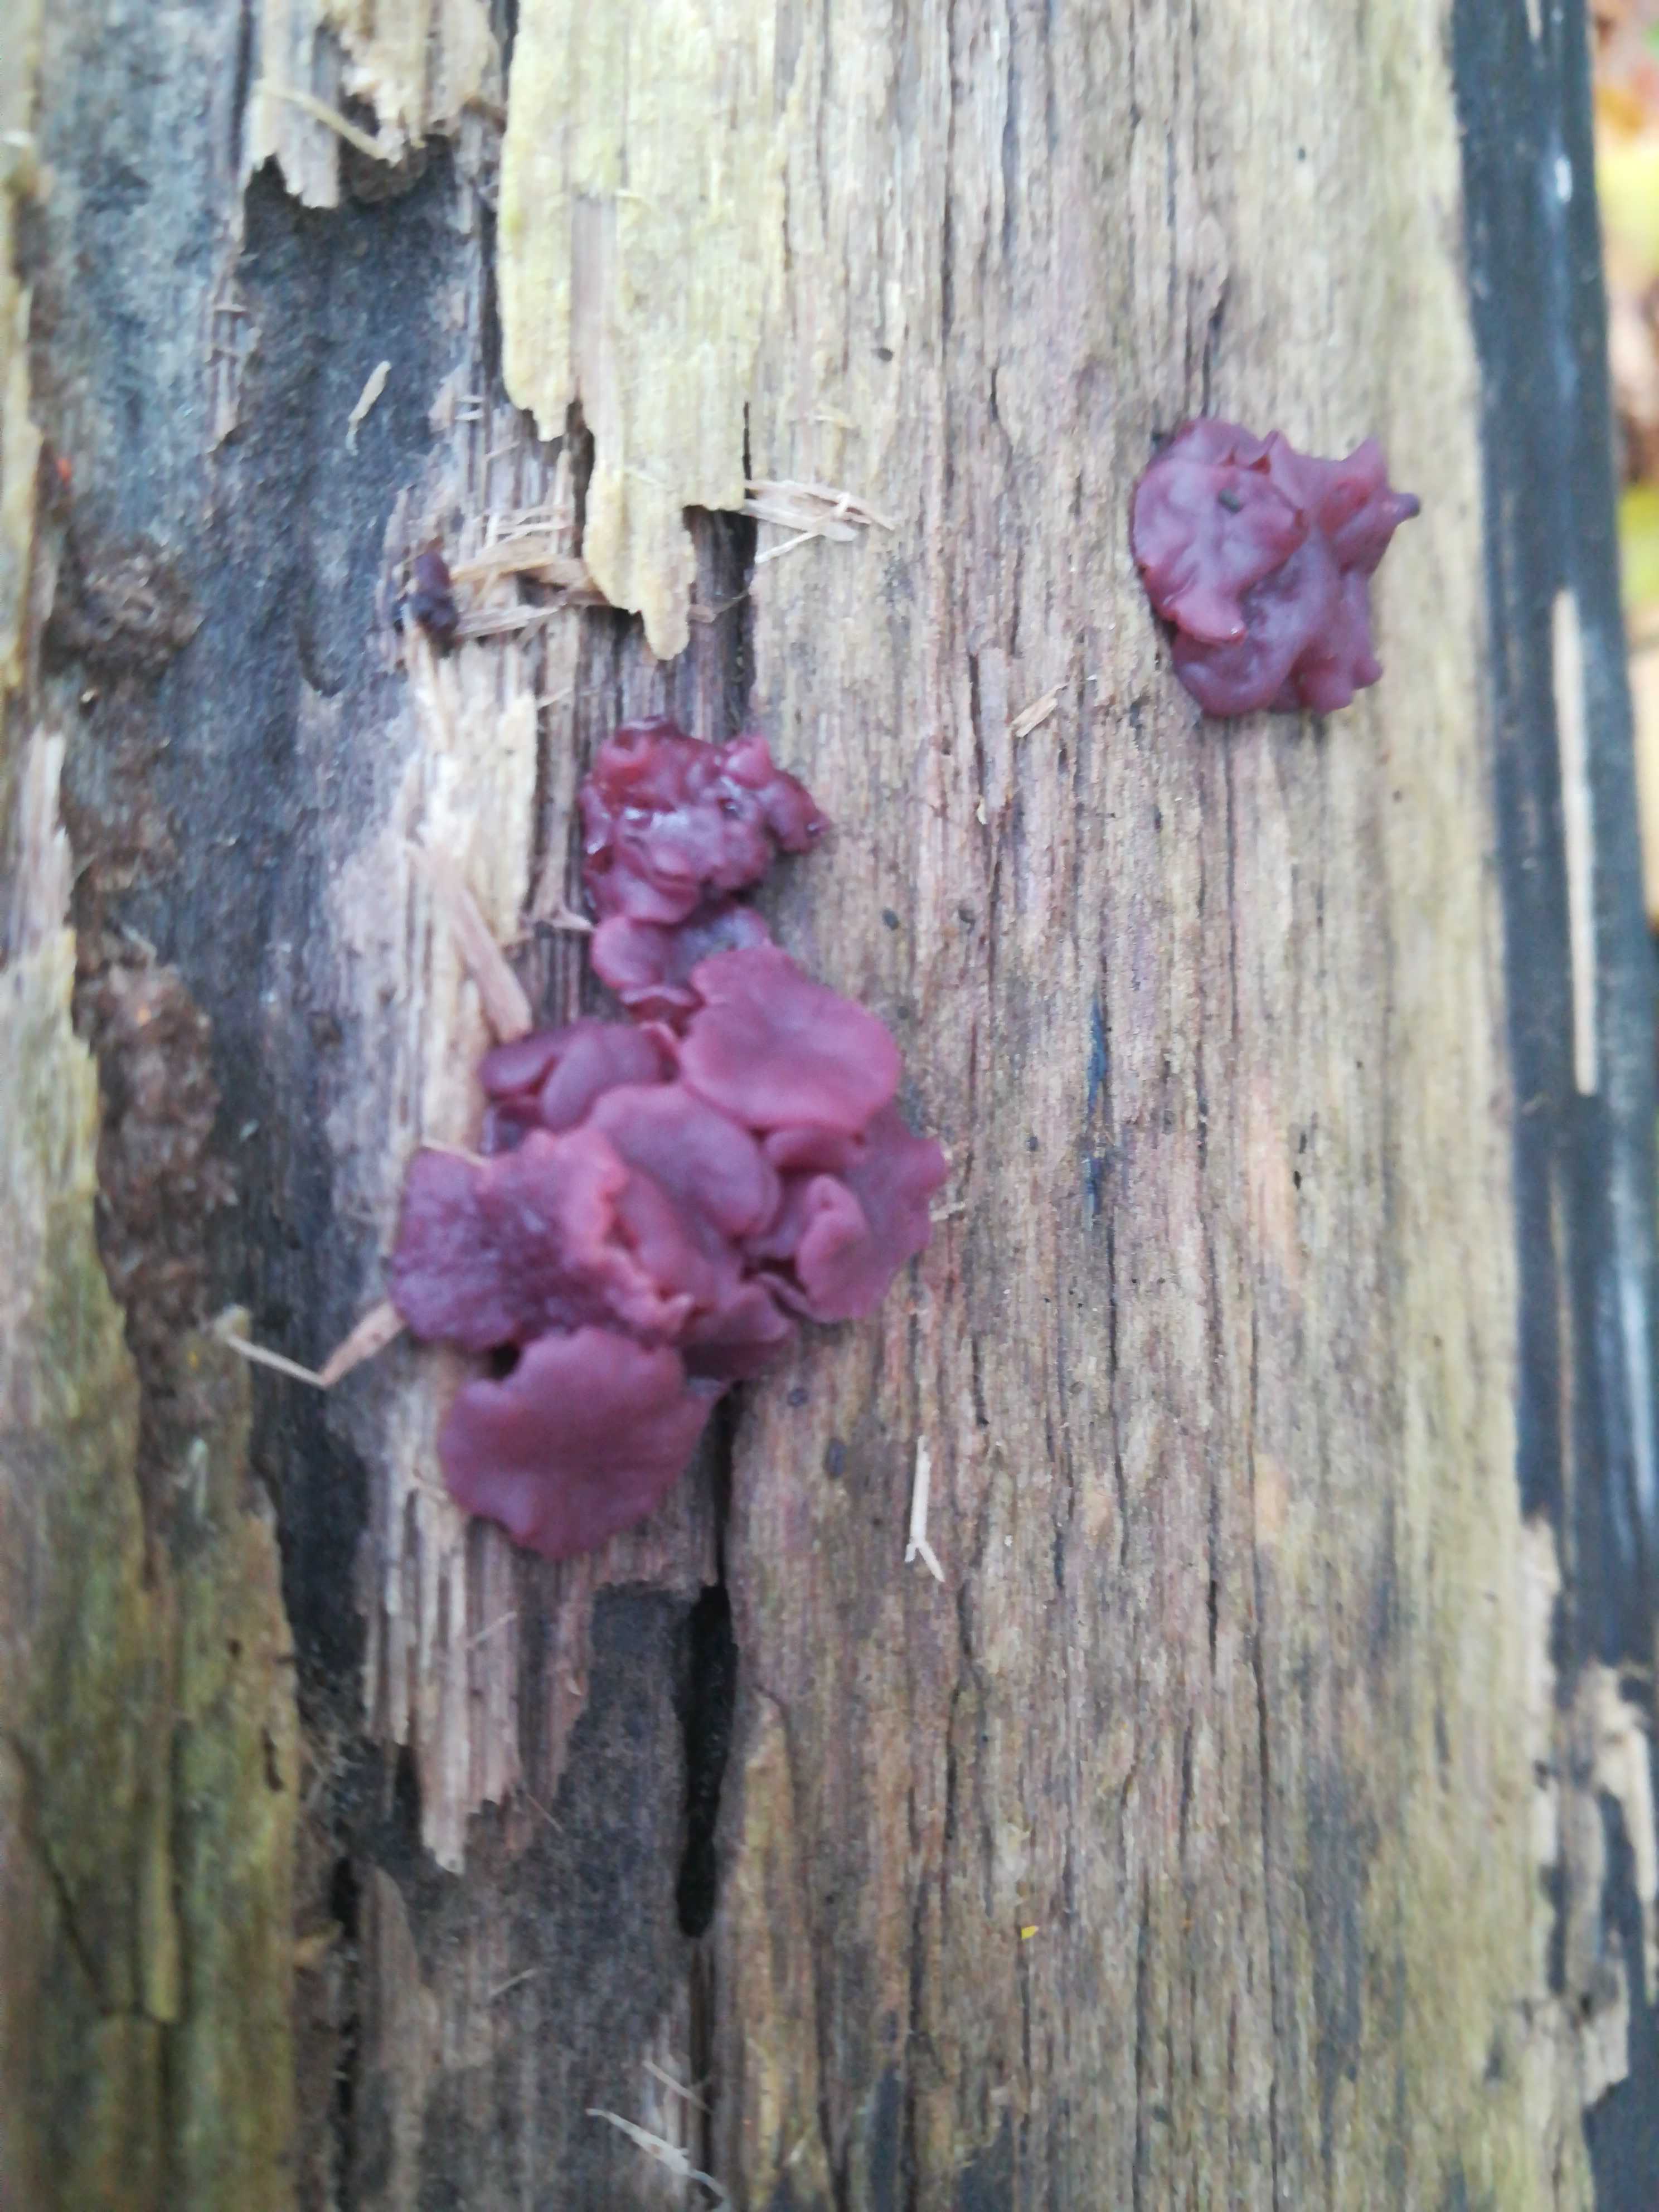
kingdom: Fungi
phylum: Ascomycota
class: Leotiomycetes
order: Helotiales
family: Gelatinodiscaceae
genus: Ascocoryne
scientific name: Ascocoryne
